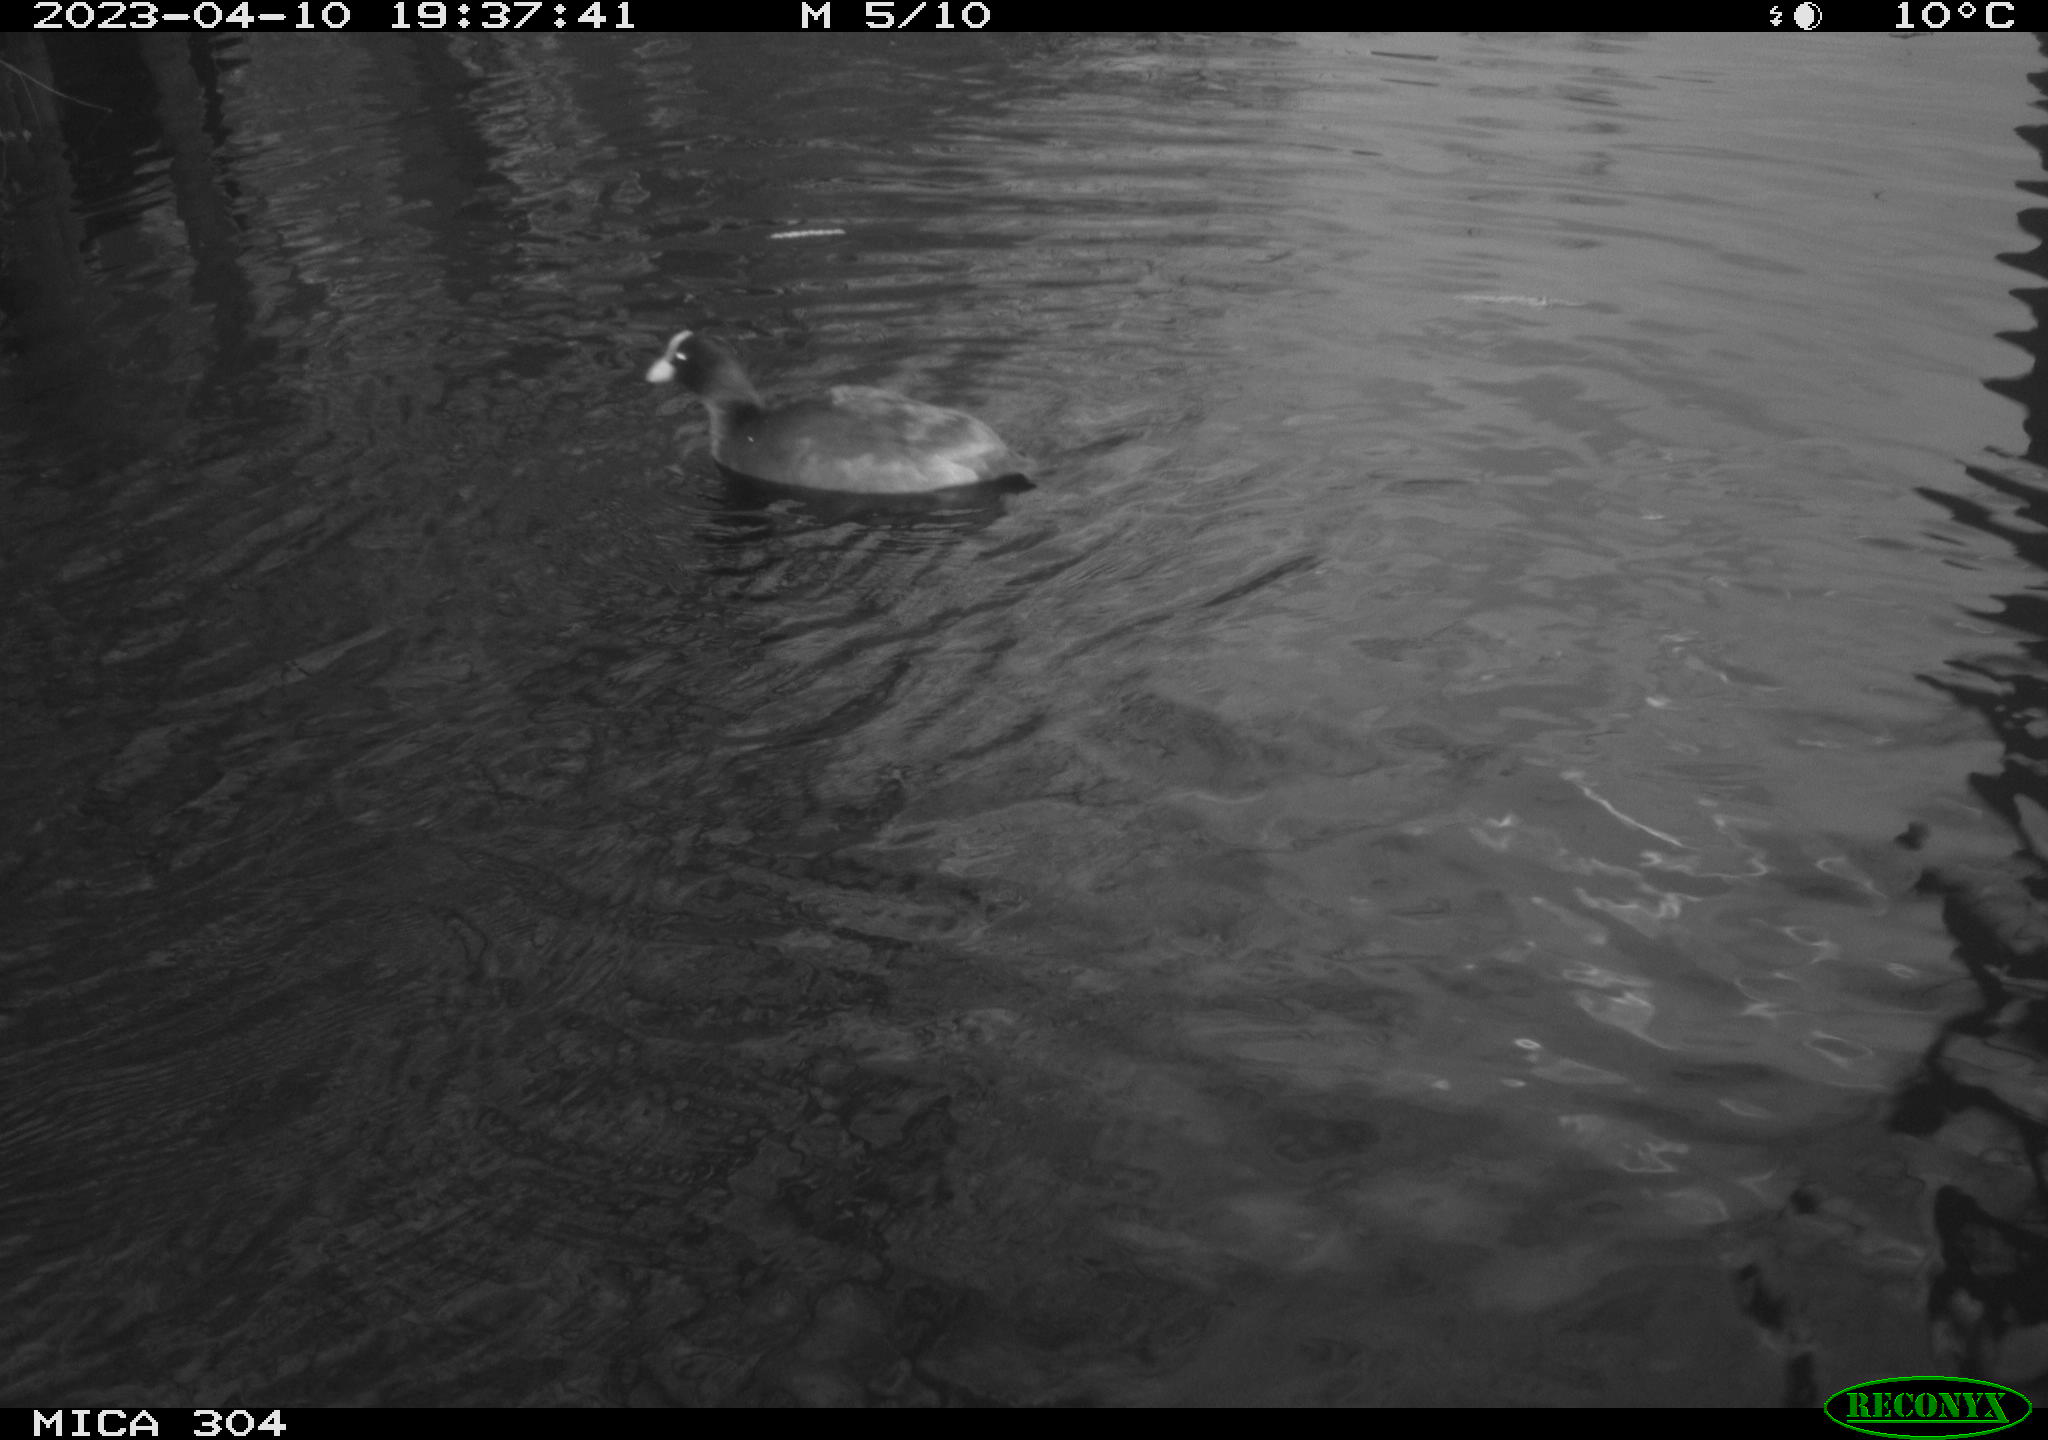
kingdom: Animalia
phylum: Chordata
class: Aves
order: Anseriformes
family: Anatidae
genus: Anas
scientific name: Anas
